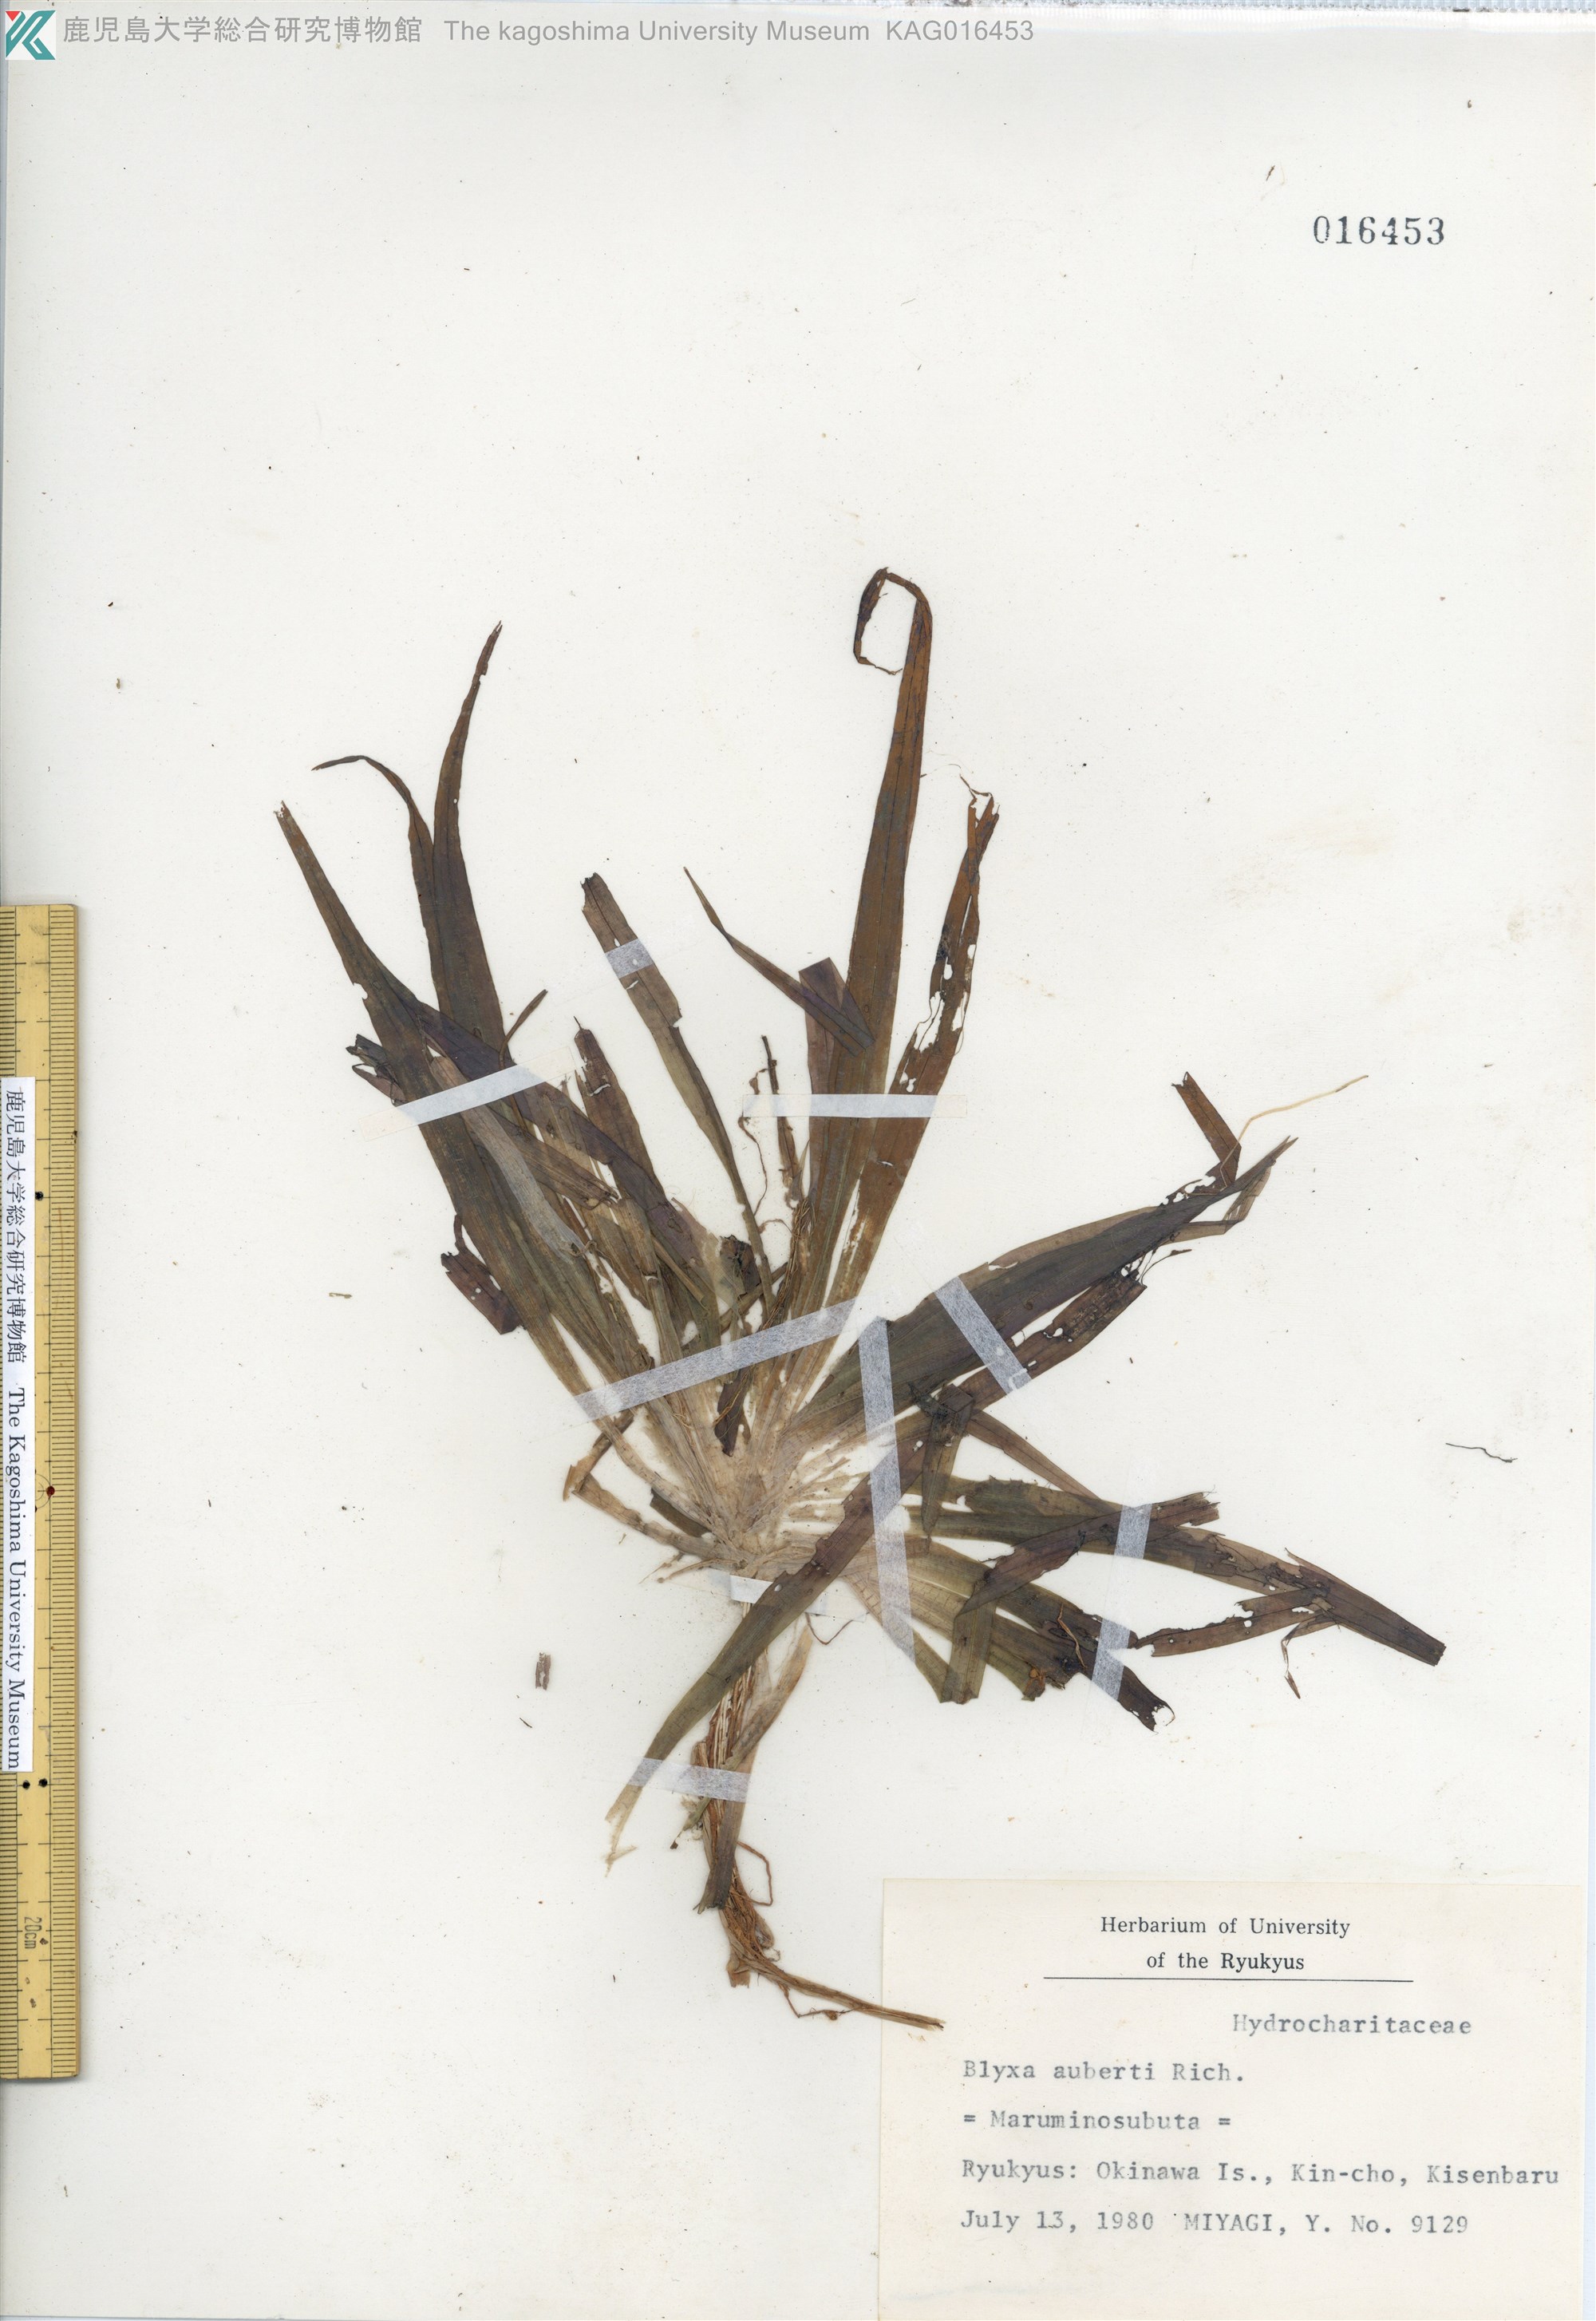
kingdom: Plantae
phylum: Tracheophyta
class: Liliopsida
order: Alismatales
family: Hydrocharitaceae
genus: Blyxa
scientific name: Blyxa echinosperma
